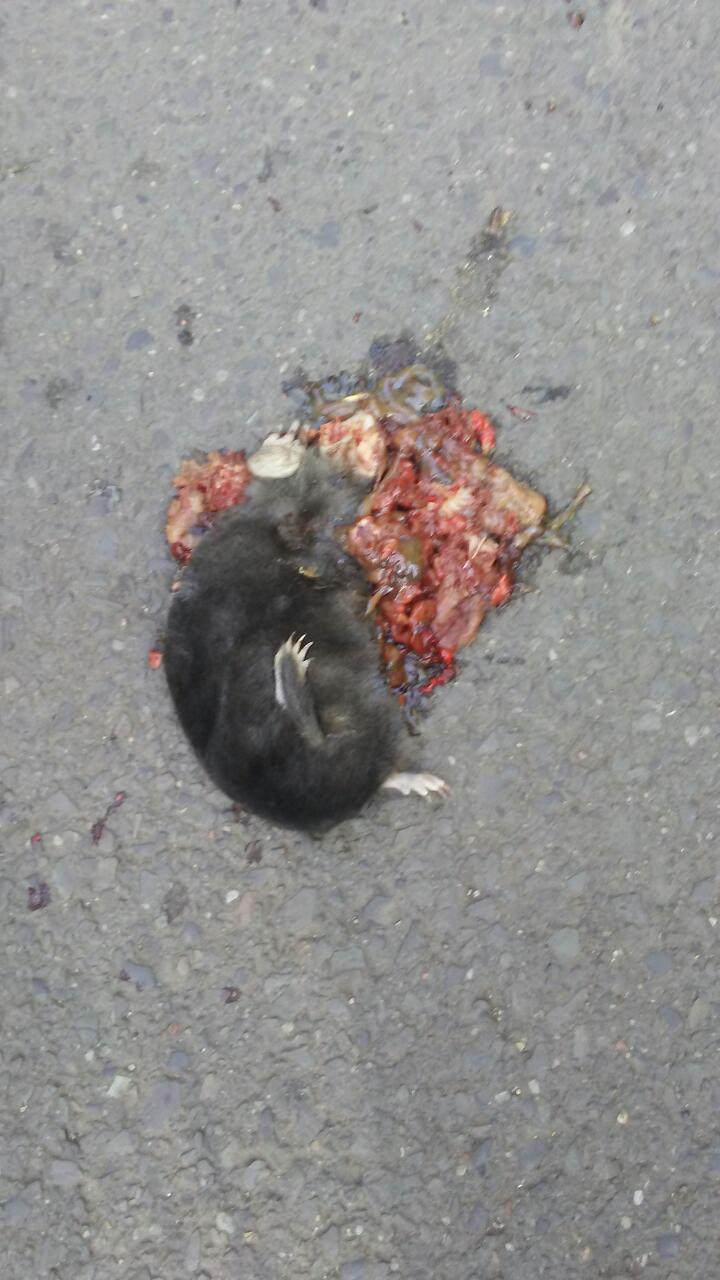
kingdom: Animalia
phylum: Chordata
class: Mammalia
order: Soricomorpha
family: Talpidae
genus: Talpa
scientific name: Talpa europaea
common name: European mole
